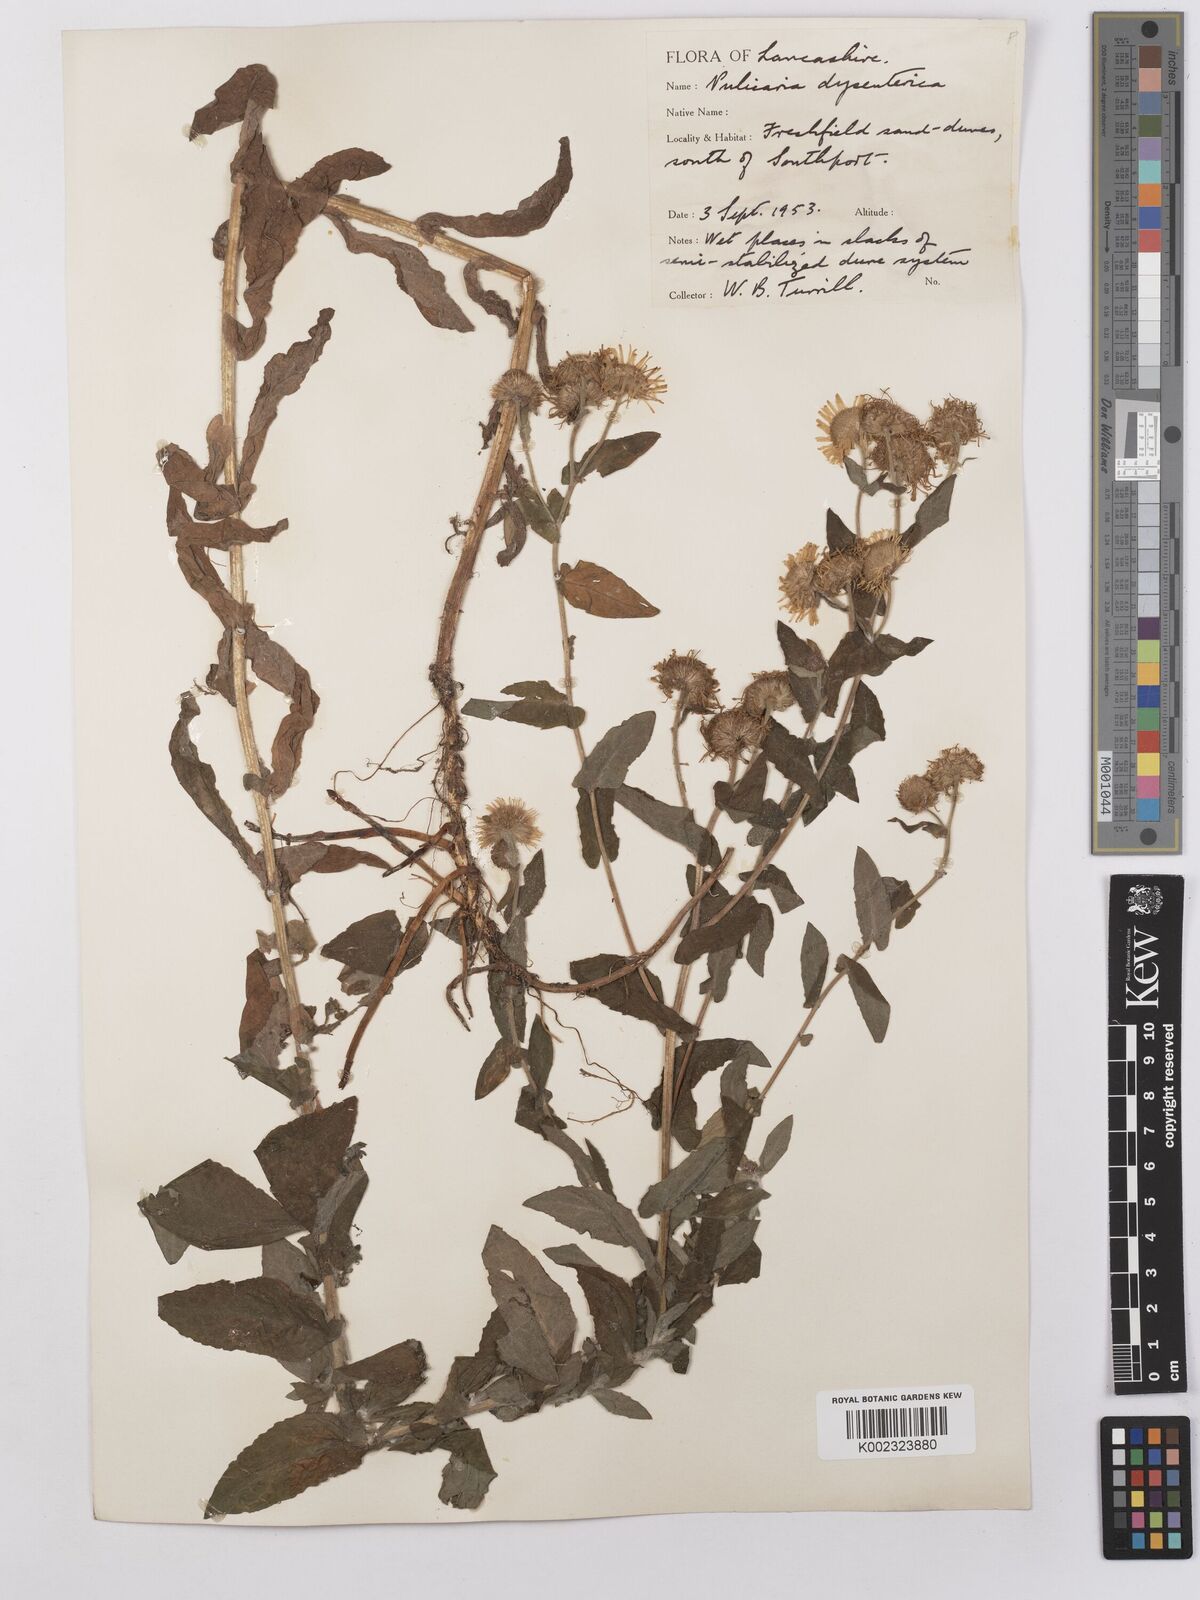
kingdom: Plantae
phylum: Tracheophyta
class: Magnoliopsida
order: Asterales
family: Asteraceae
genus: Pulicaria
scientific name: Pulicaria dysenterica
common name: Common fleabane
